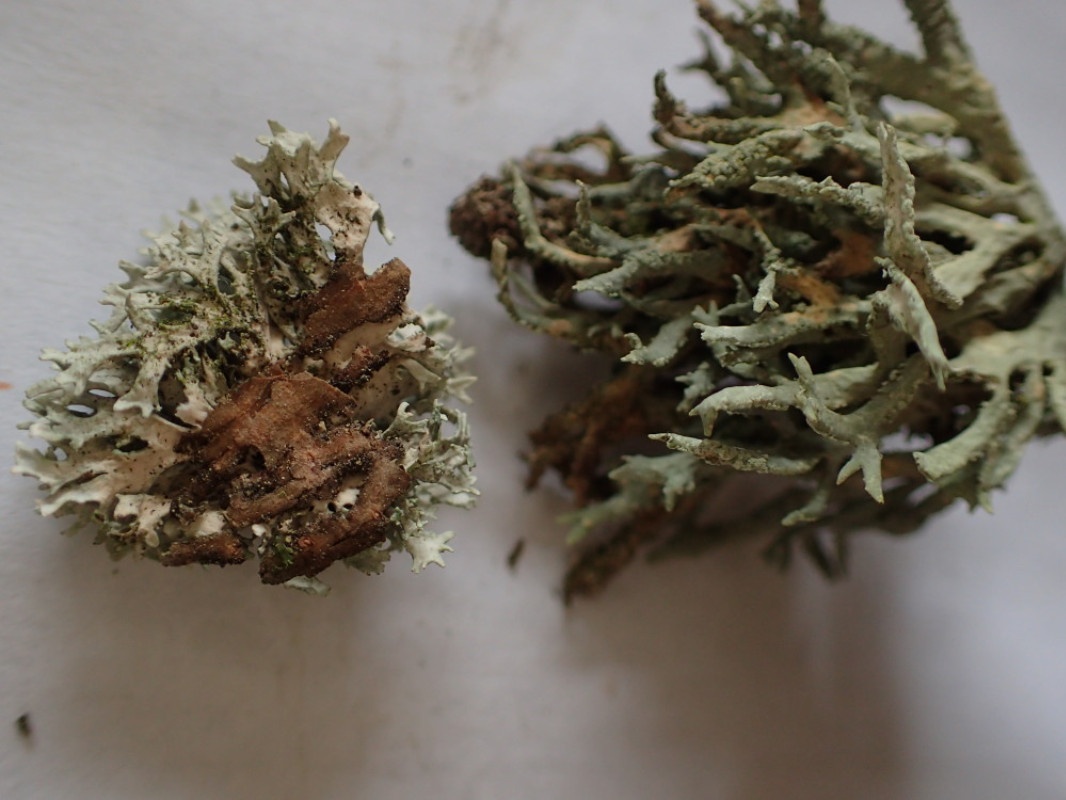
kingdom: Fungi
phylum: Ascomycota
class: Lecanoromycetes
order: Lecanorales
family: Parmeliaceae
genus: Evernia
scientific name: Evernia prunastri
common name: almindelig slåenlav
